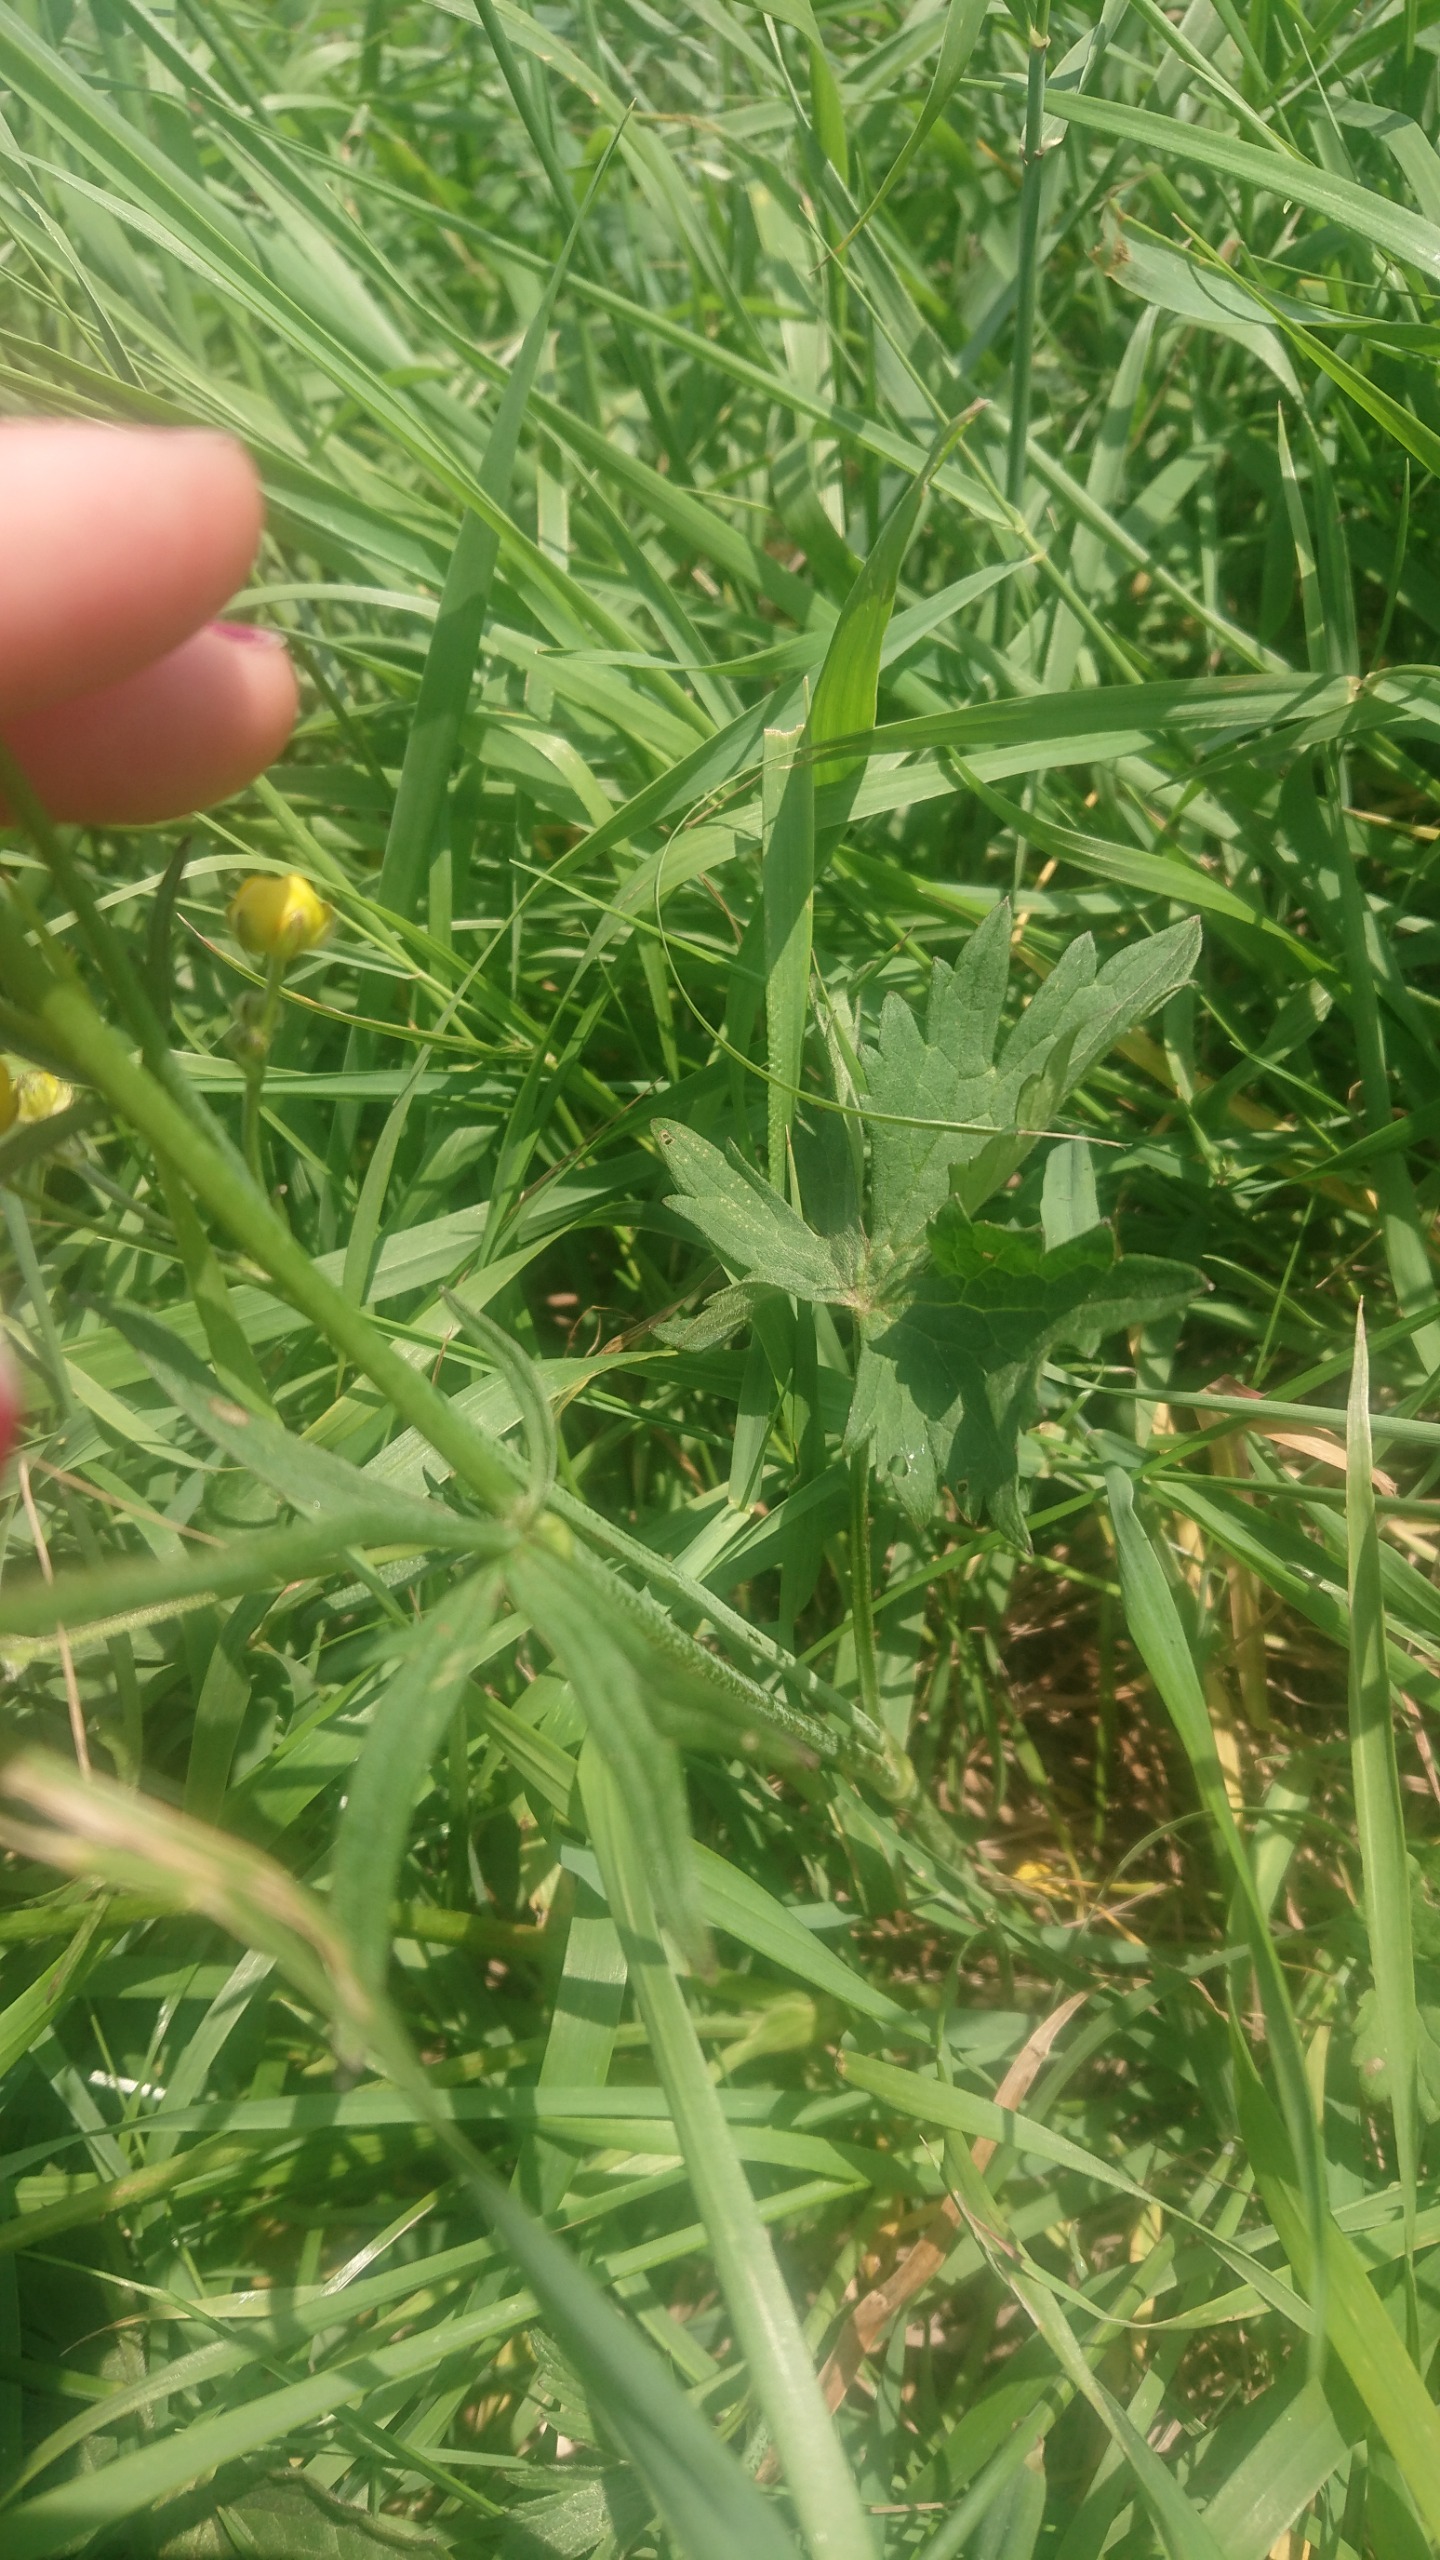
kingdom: Plantae
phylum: Tracheophyta
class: Magnoliopsida
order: Ranunculales
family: Ranunculaceae
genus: Ranunculus
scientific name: Ranunculus acris
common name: Bidende ranunkel
